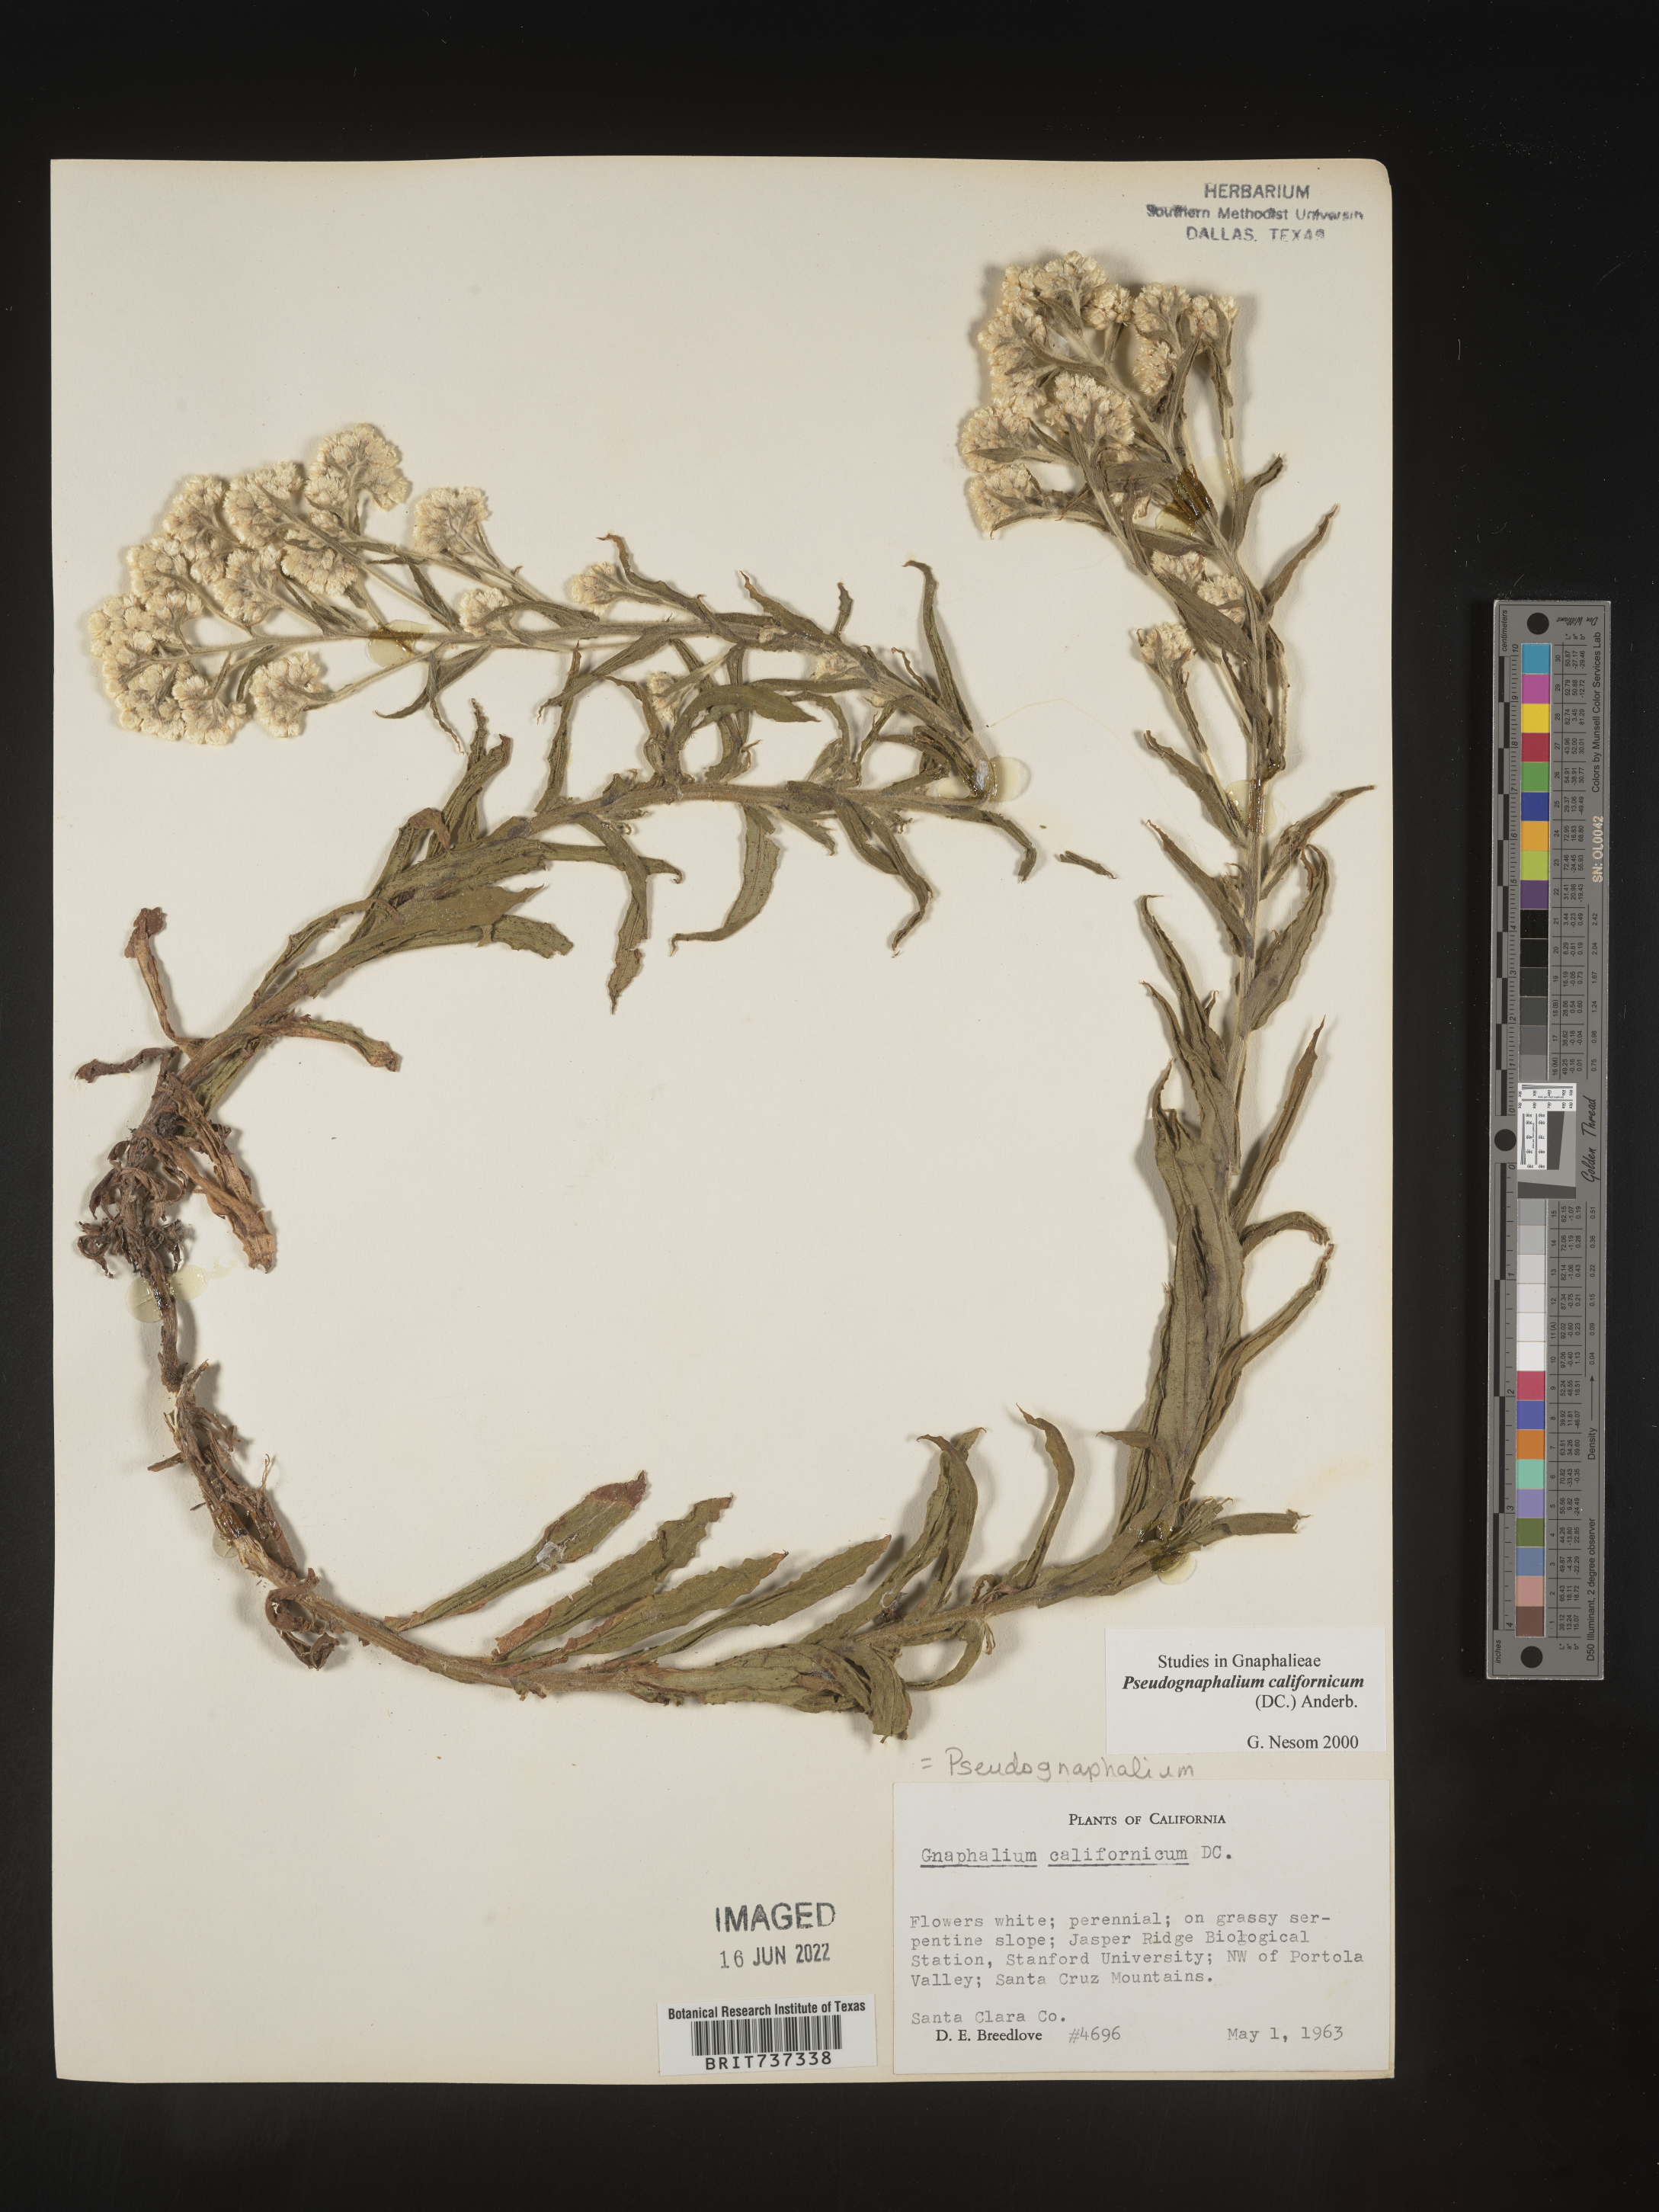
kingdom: Plantae
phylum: Tracheophyta
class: Magnoliopsida
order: Asterales
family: Asteraceae
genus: Pseudognaphalium
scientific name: Pseudognaphalium californicum
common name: California rabbit-tobacco
